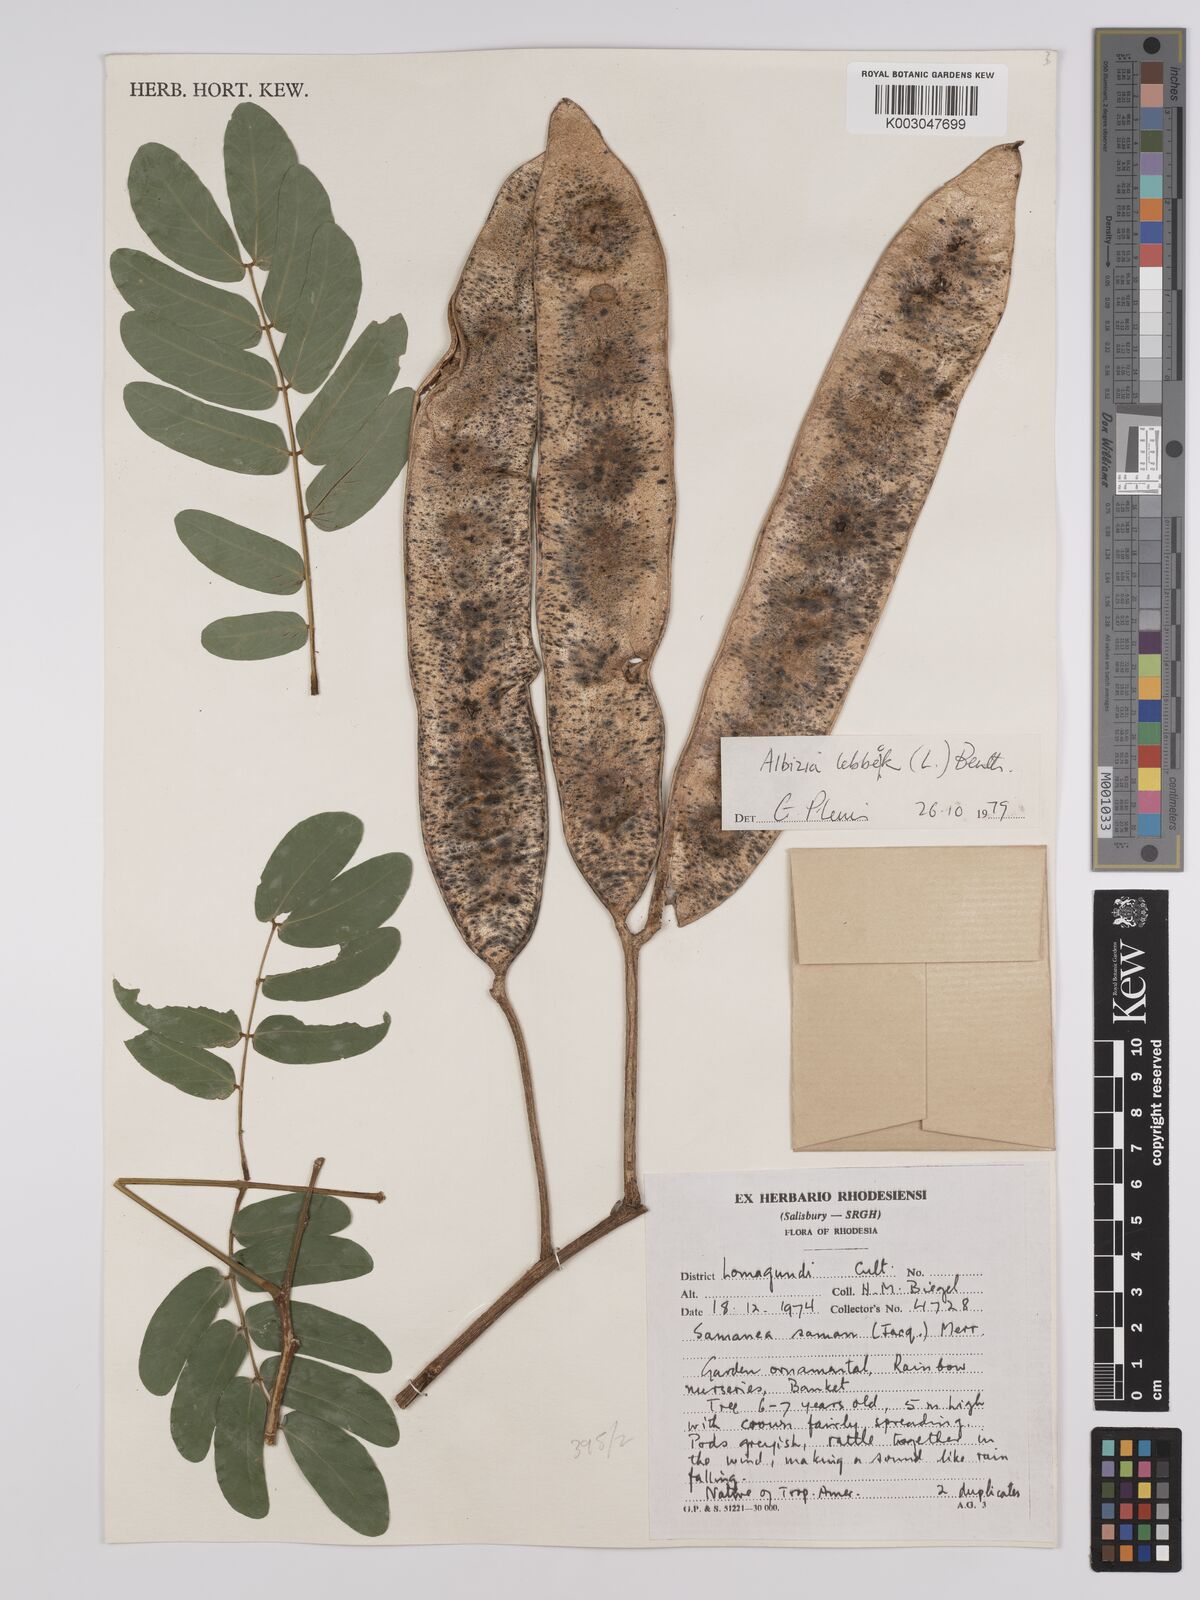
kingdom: Plantae
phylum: Tracheophyta
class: Magnoliopsida
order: Fabales
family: Fabaceae
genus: Albizia
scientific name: Albizia lebbeck
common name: Woman's tongue
